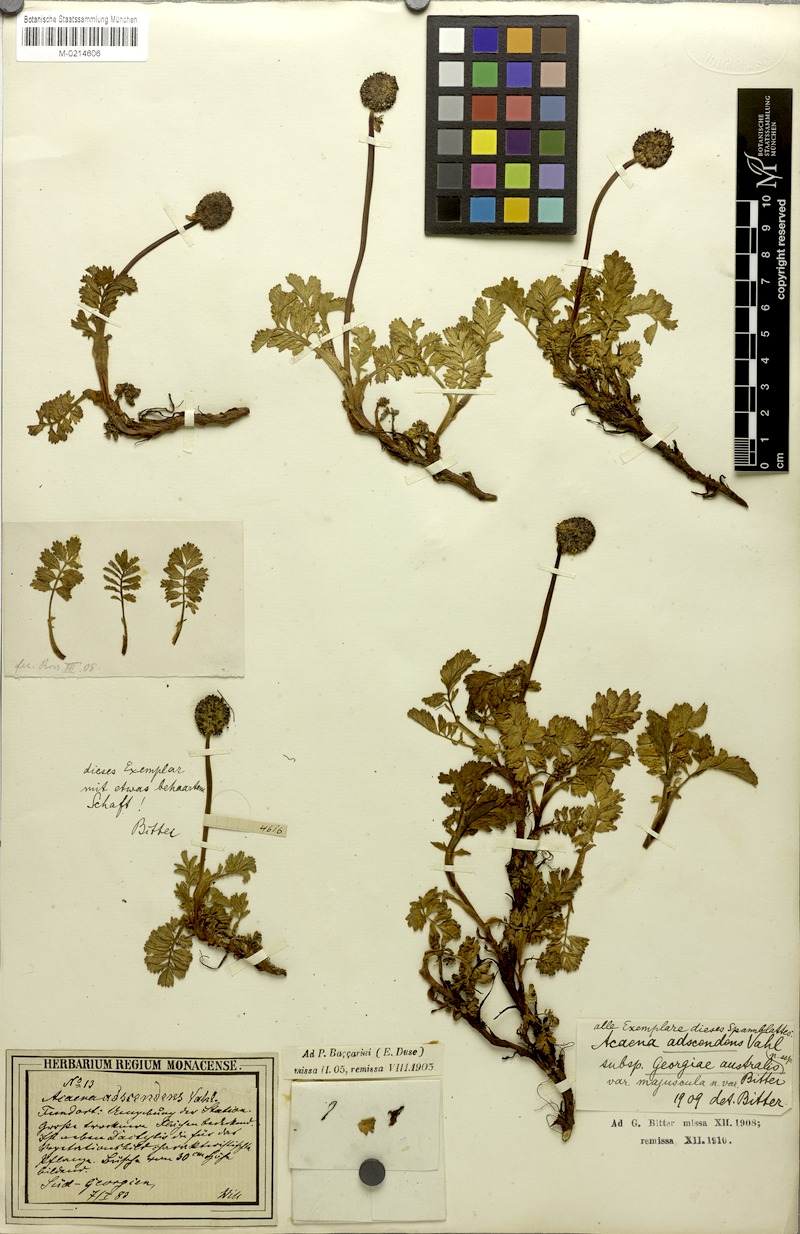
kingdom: Plantae
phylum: Tracheophyta
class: Magnoliopsida
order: Rosales
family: Rosaceae
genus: Acaena
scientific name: Acaena magellanica
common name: New zealand burr
